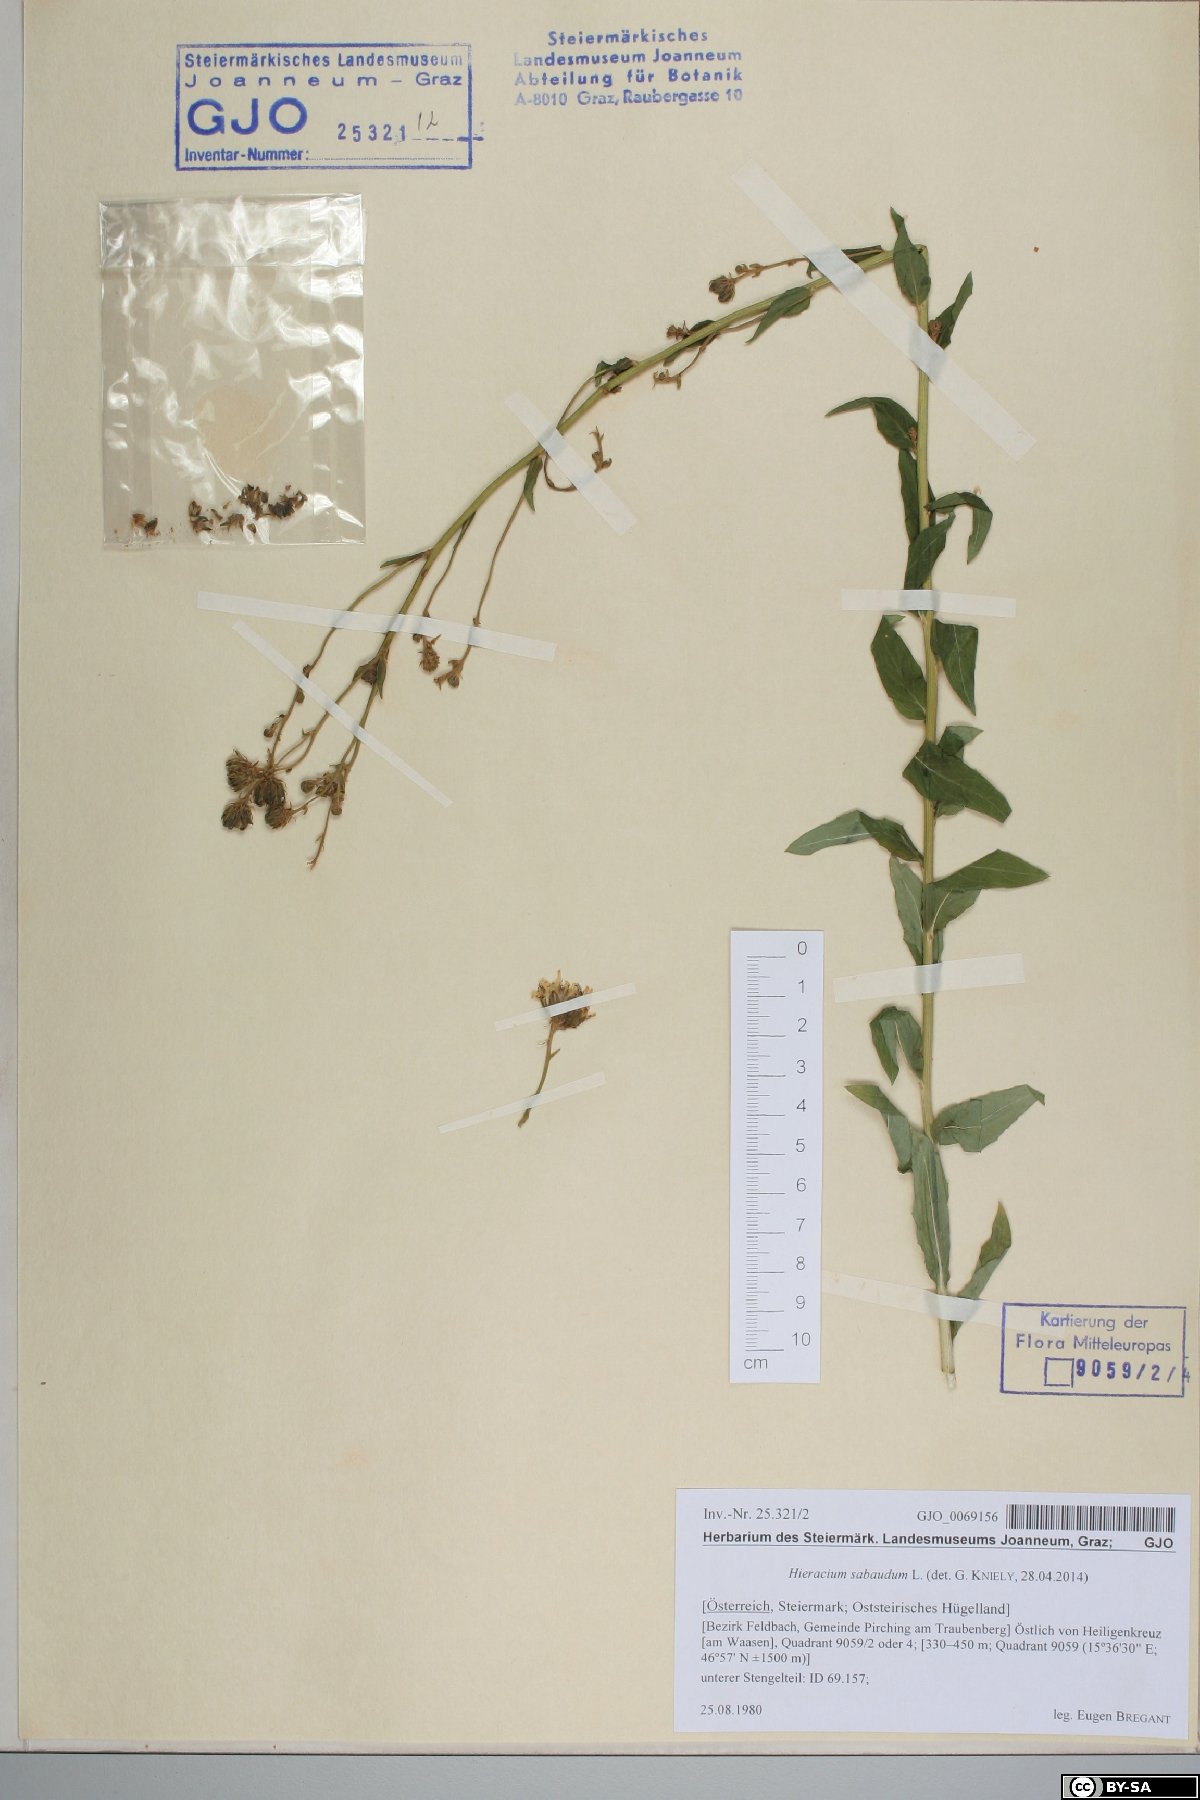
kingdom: Plantae
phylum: Tracheophyta
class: Magnoliopsida
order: Asterales
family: Asteraceae
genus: Hieracium
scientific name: Hieracium sabaudum
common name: New england hawkweed
